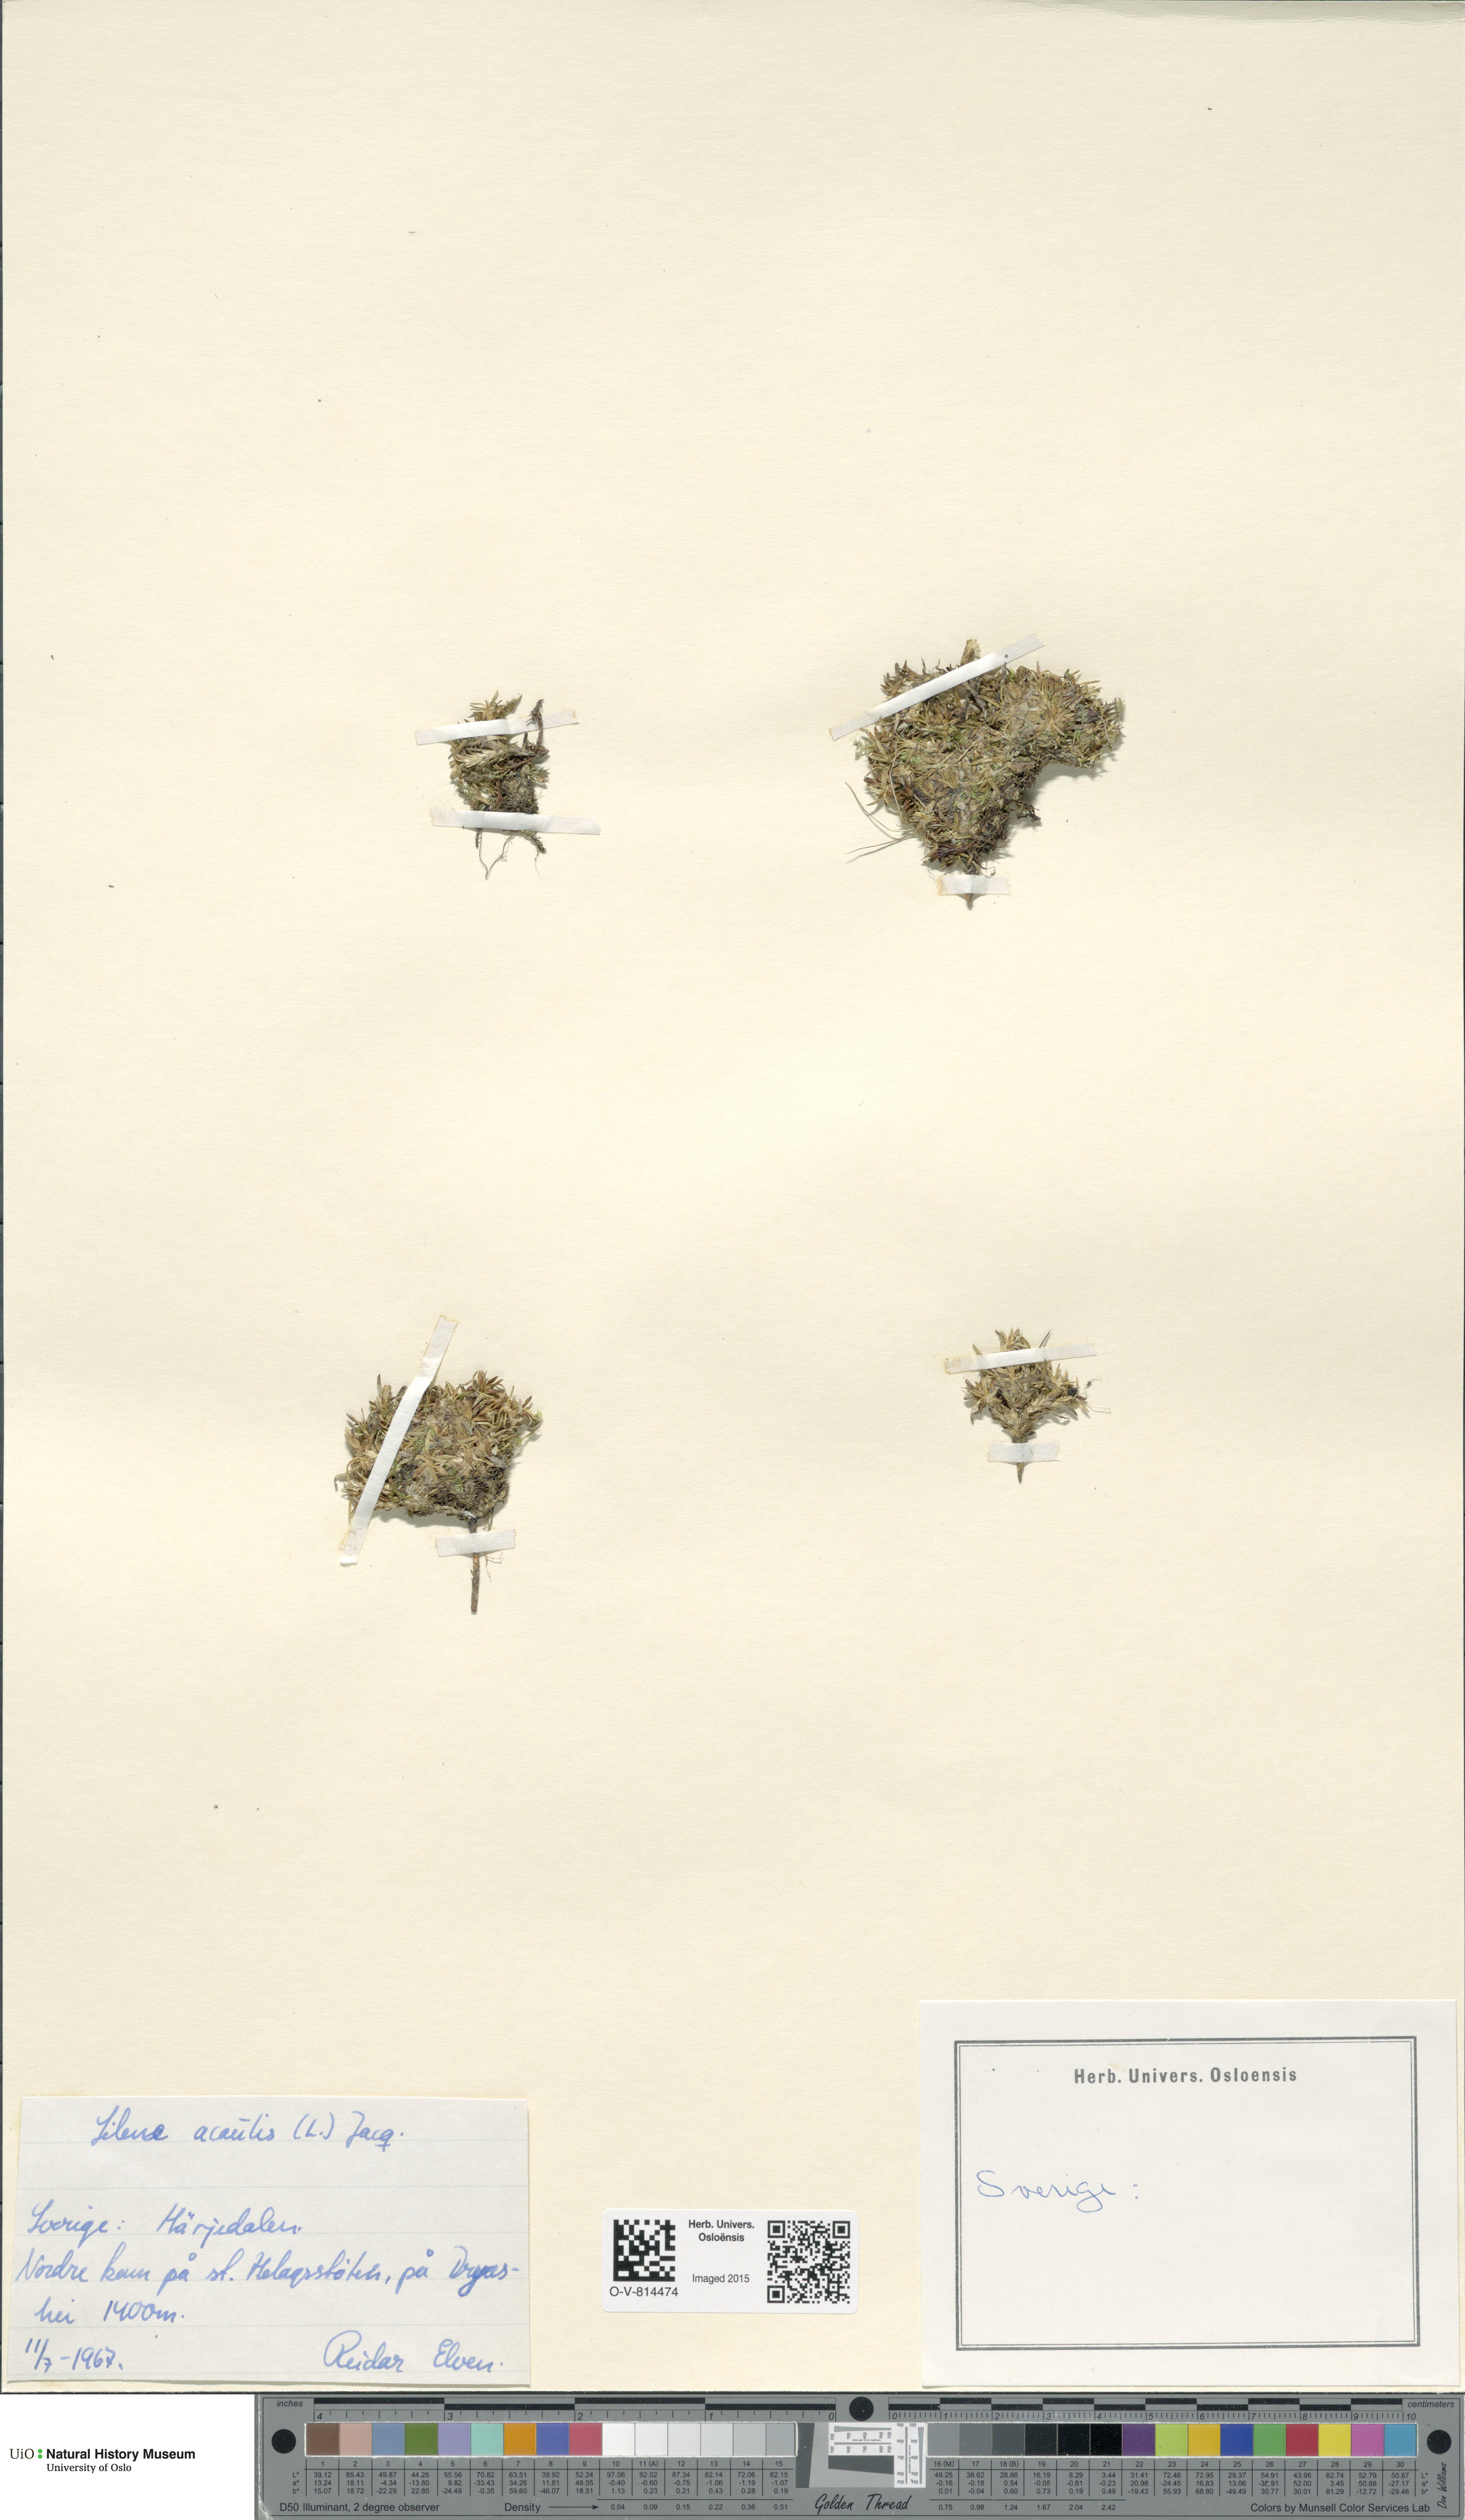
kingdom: Plantae
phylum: Tracheophyta
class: Magnoliopsida
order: Caryophyllales
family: Caryophyllaceae
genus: Silene
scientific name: Silene acaulis
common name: Moss campion
